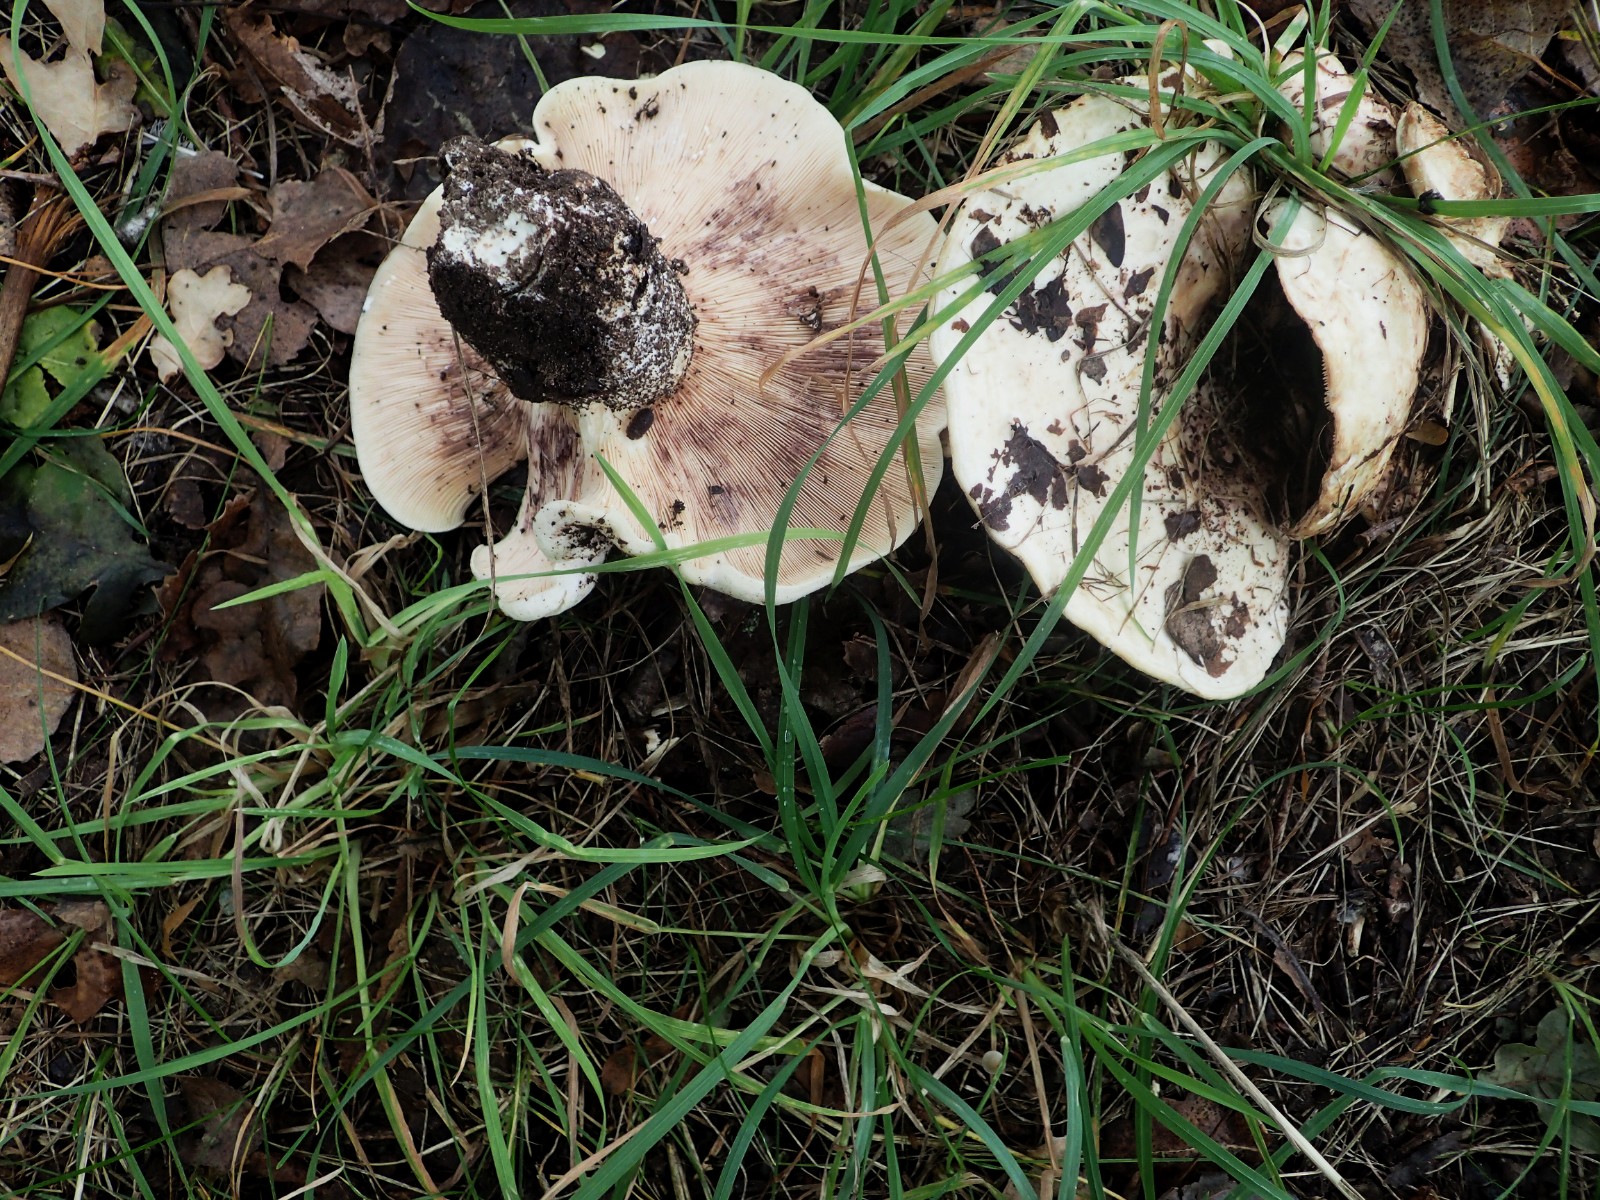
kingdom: Fungi
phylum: Basidiomycota
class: Agaricomycetes
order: Russulales
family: Russulaceae
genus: Lactarius
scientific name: Lactarius controversus
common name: rosabladet mælkehat
